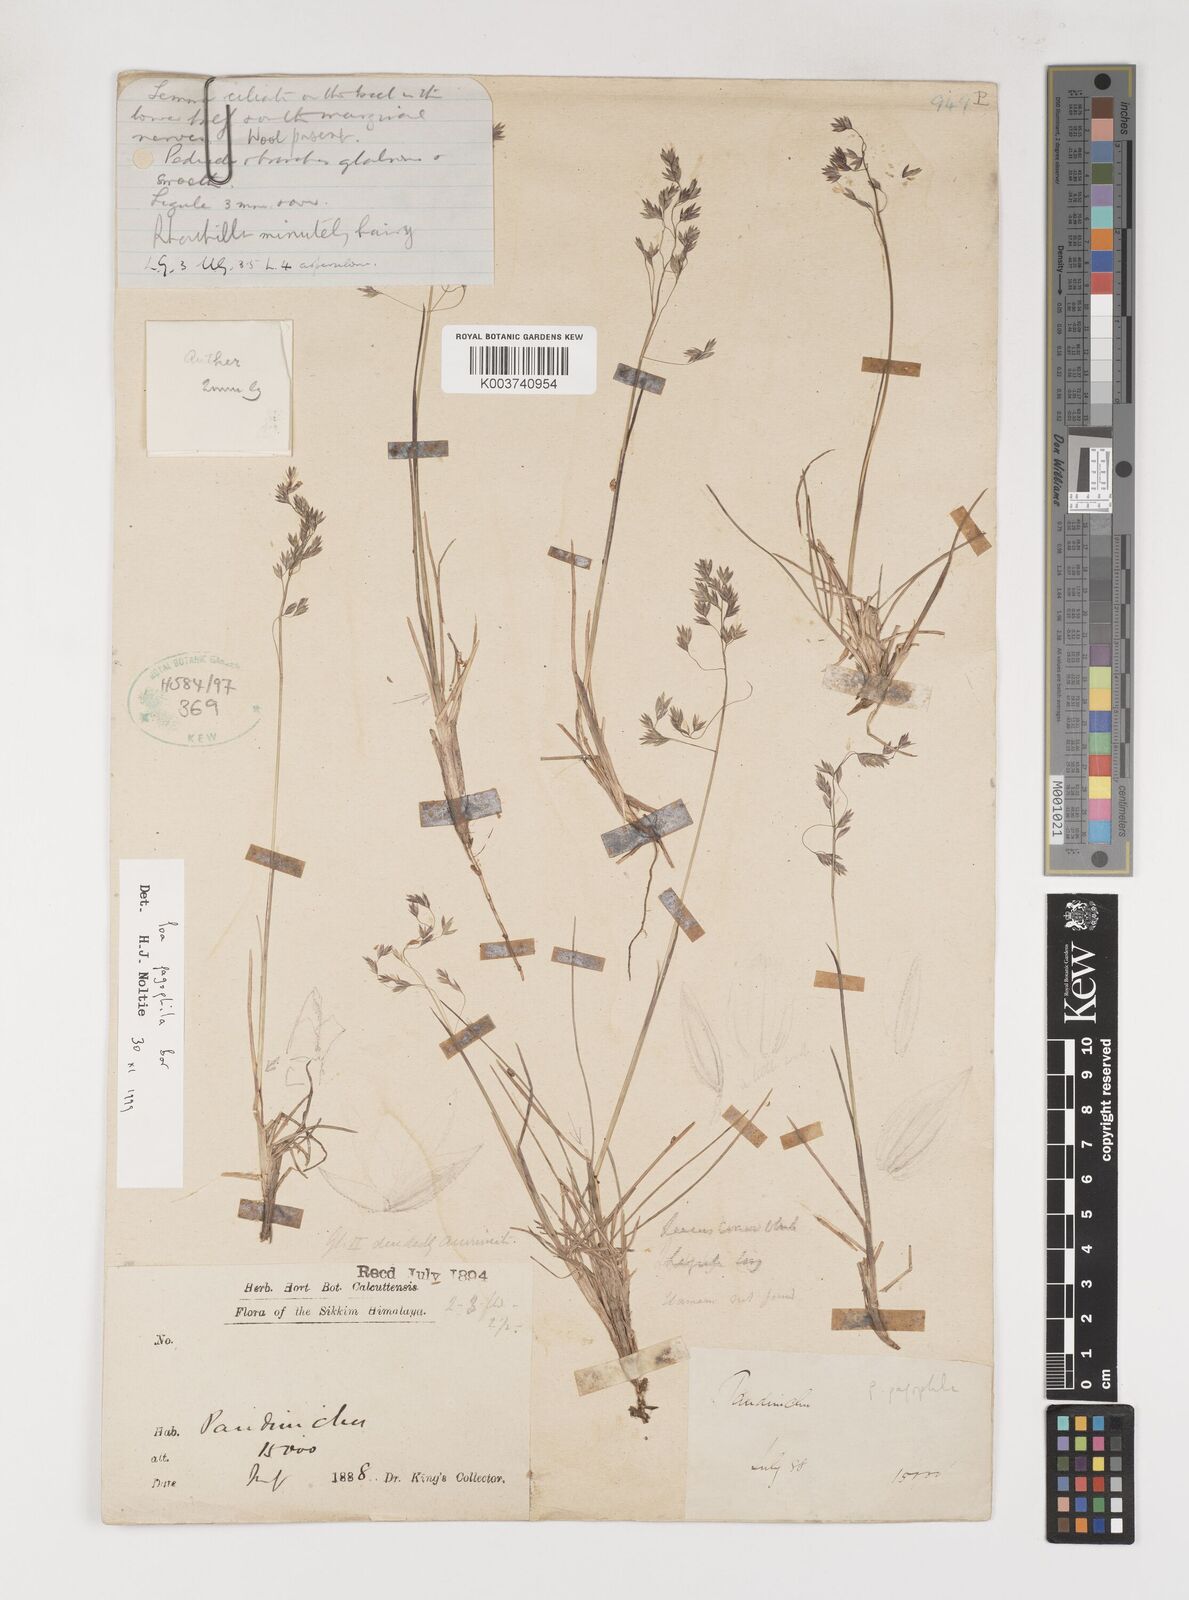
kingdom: Plantae
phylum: Tracheophyta
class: Liliopsida
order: Poales
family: Poaceae
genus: Poa
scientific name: Poa pagophila
